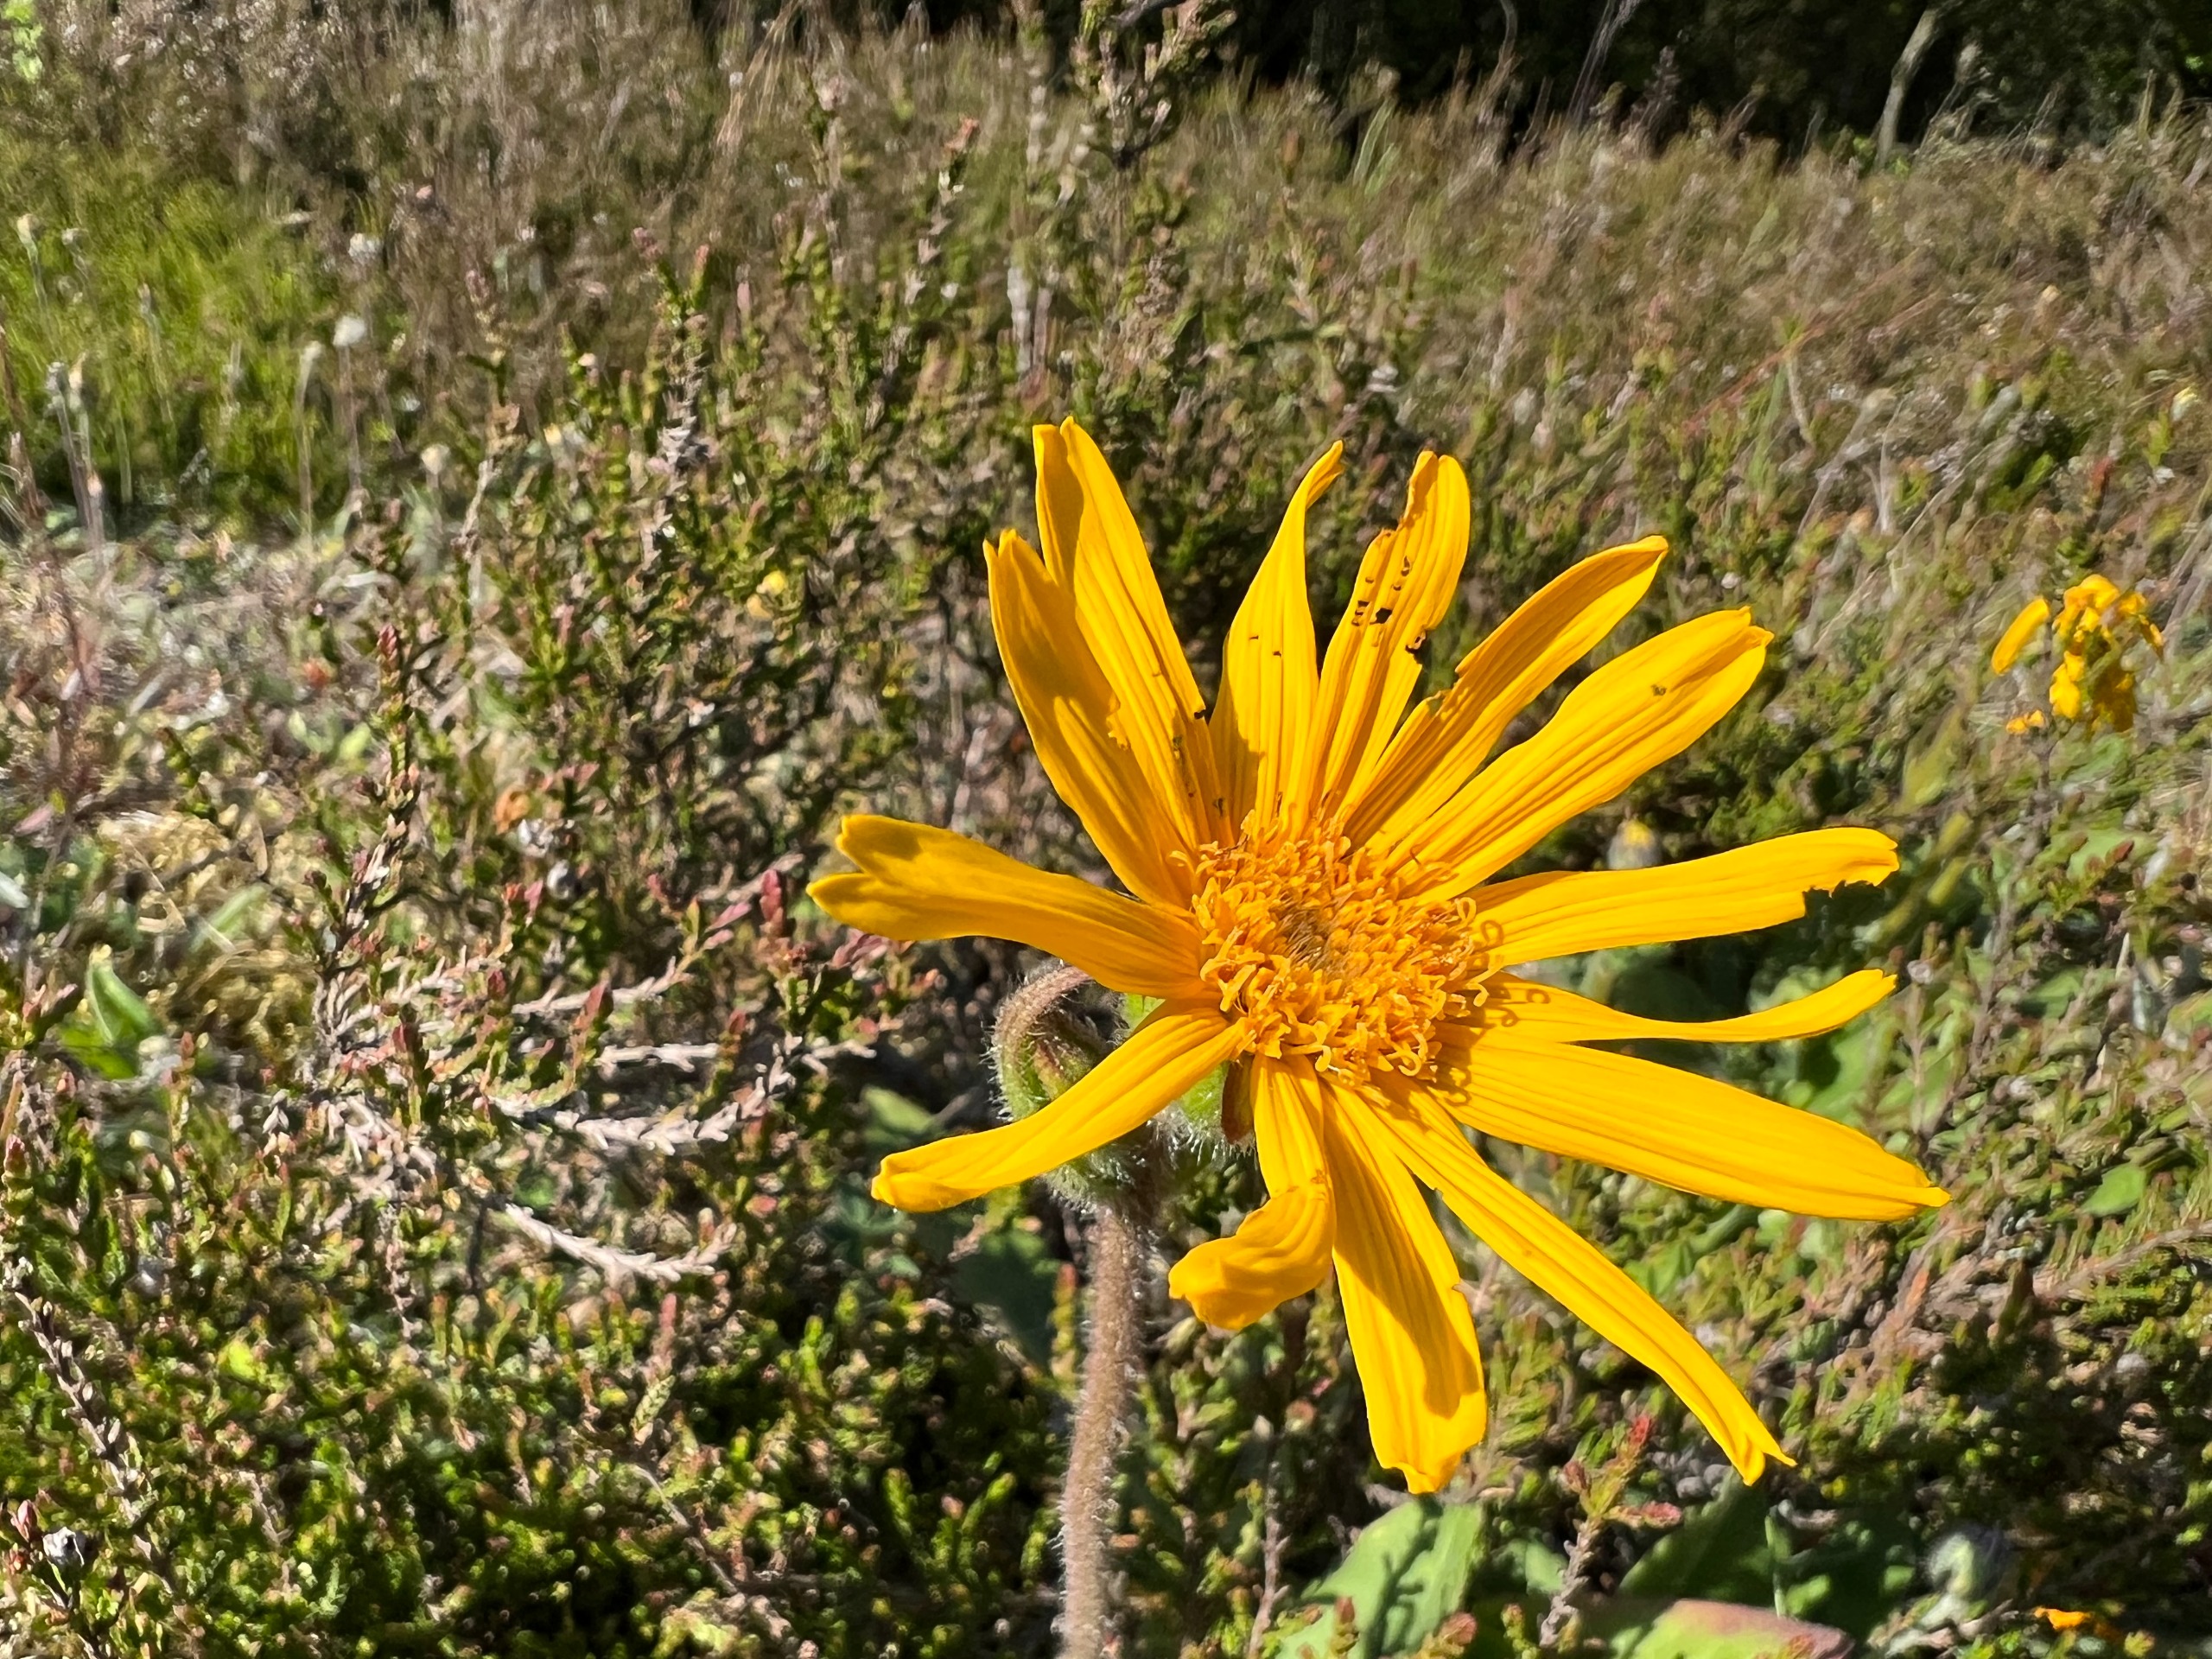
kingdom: Plantae
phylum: Tracheophyta
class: Magnoliopsida
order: Asterales
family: Asteraceae
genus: Arnica
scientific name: Arnica montana
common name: Guldblomme
